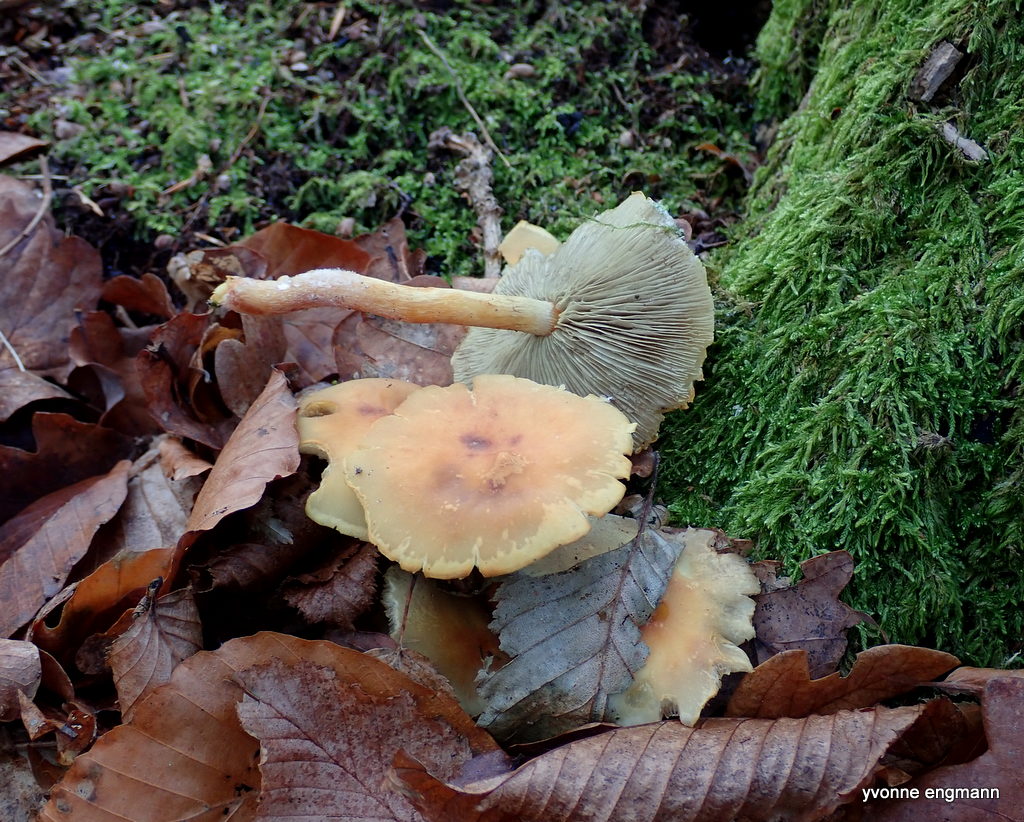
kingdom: Fungi
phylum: Basidiomycota
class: Agaricomycetes
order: Agaricales
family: Strophariaceae
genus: Hypholoma
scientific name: Hypholoma fasciculare
